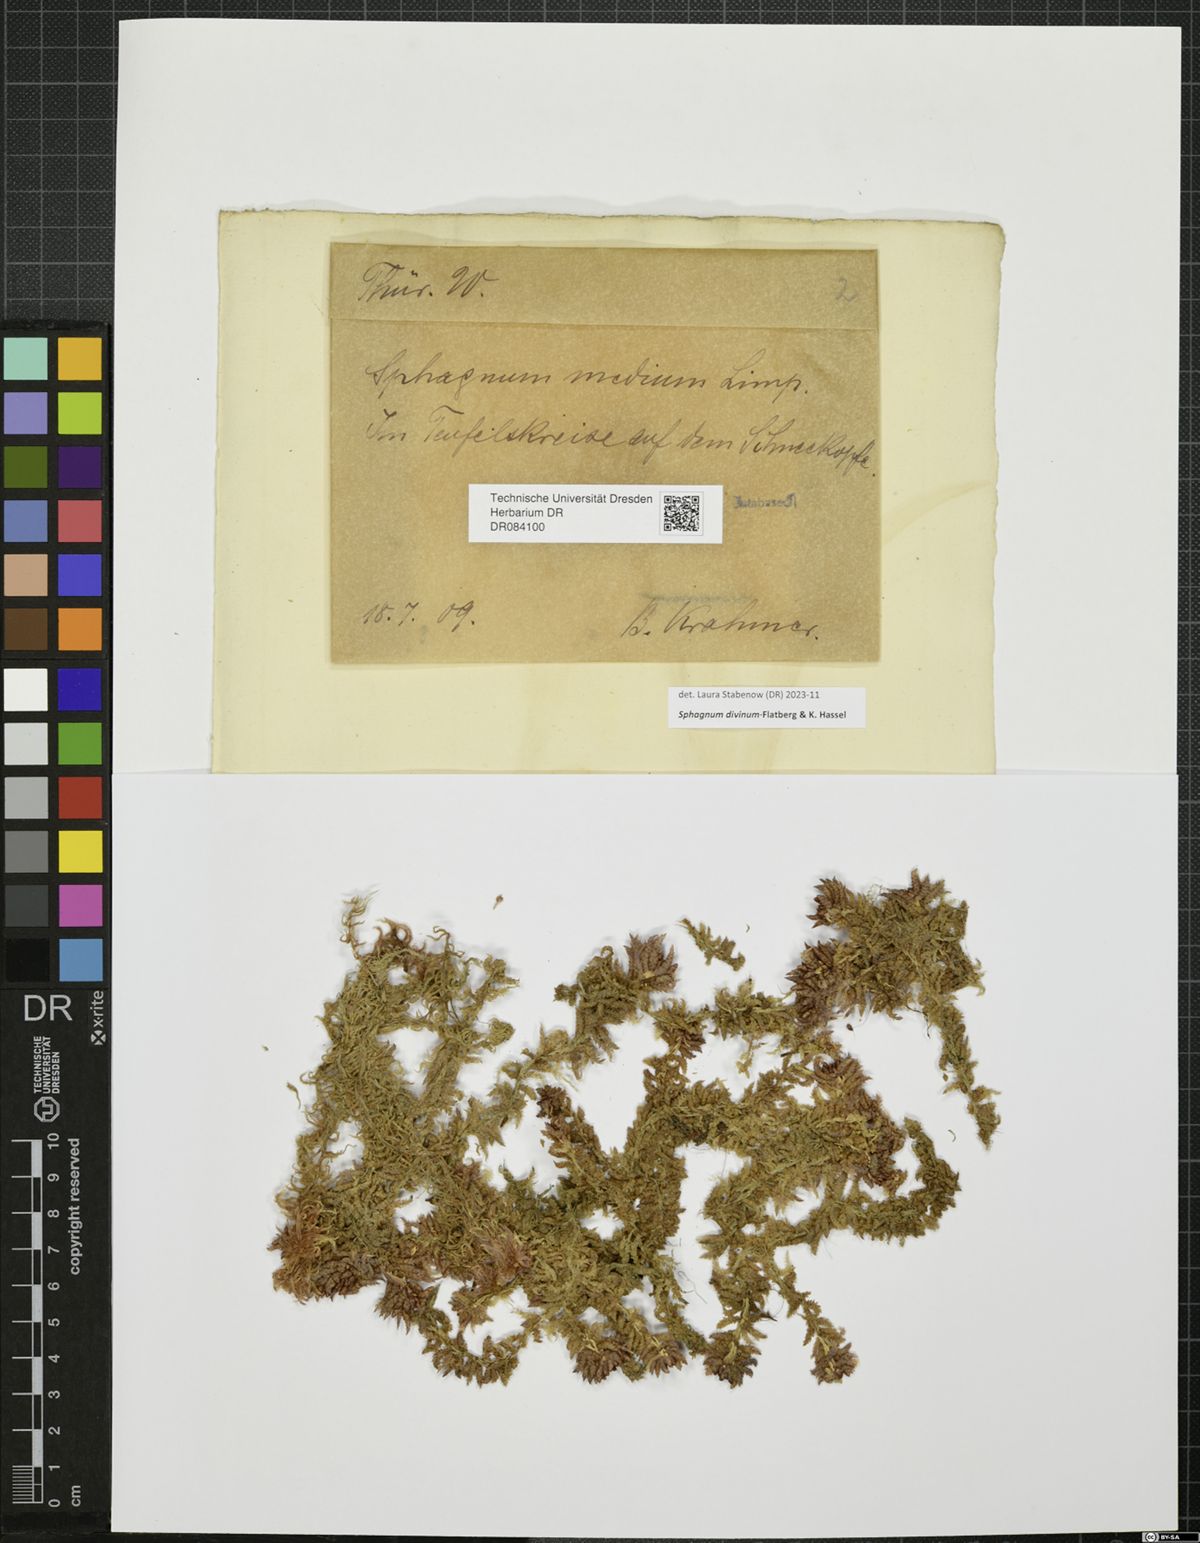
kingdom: Plantae
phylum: Bryophyta
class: Sphagnopsida
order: Sphagnales
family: Sphagnaceae
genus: Sphagnum
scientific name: Sphagnum divinum
